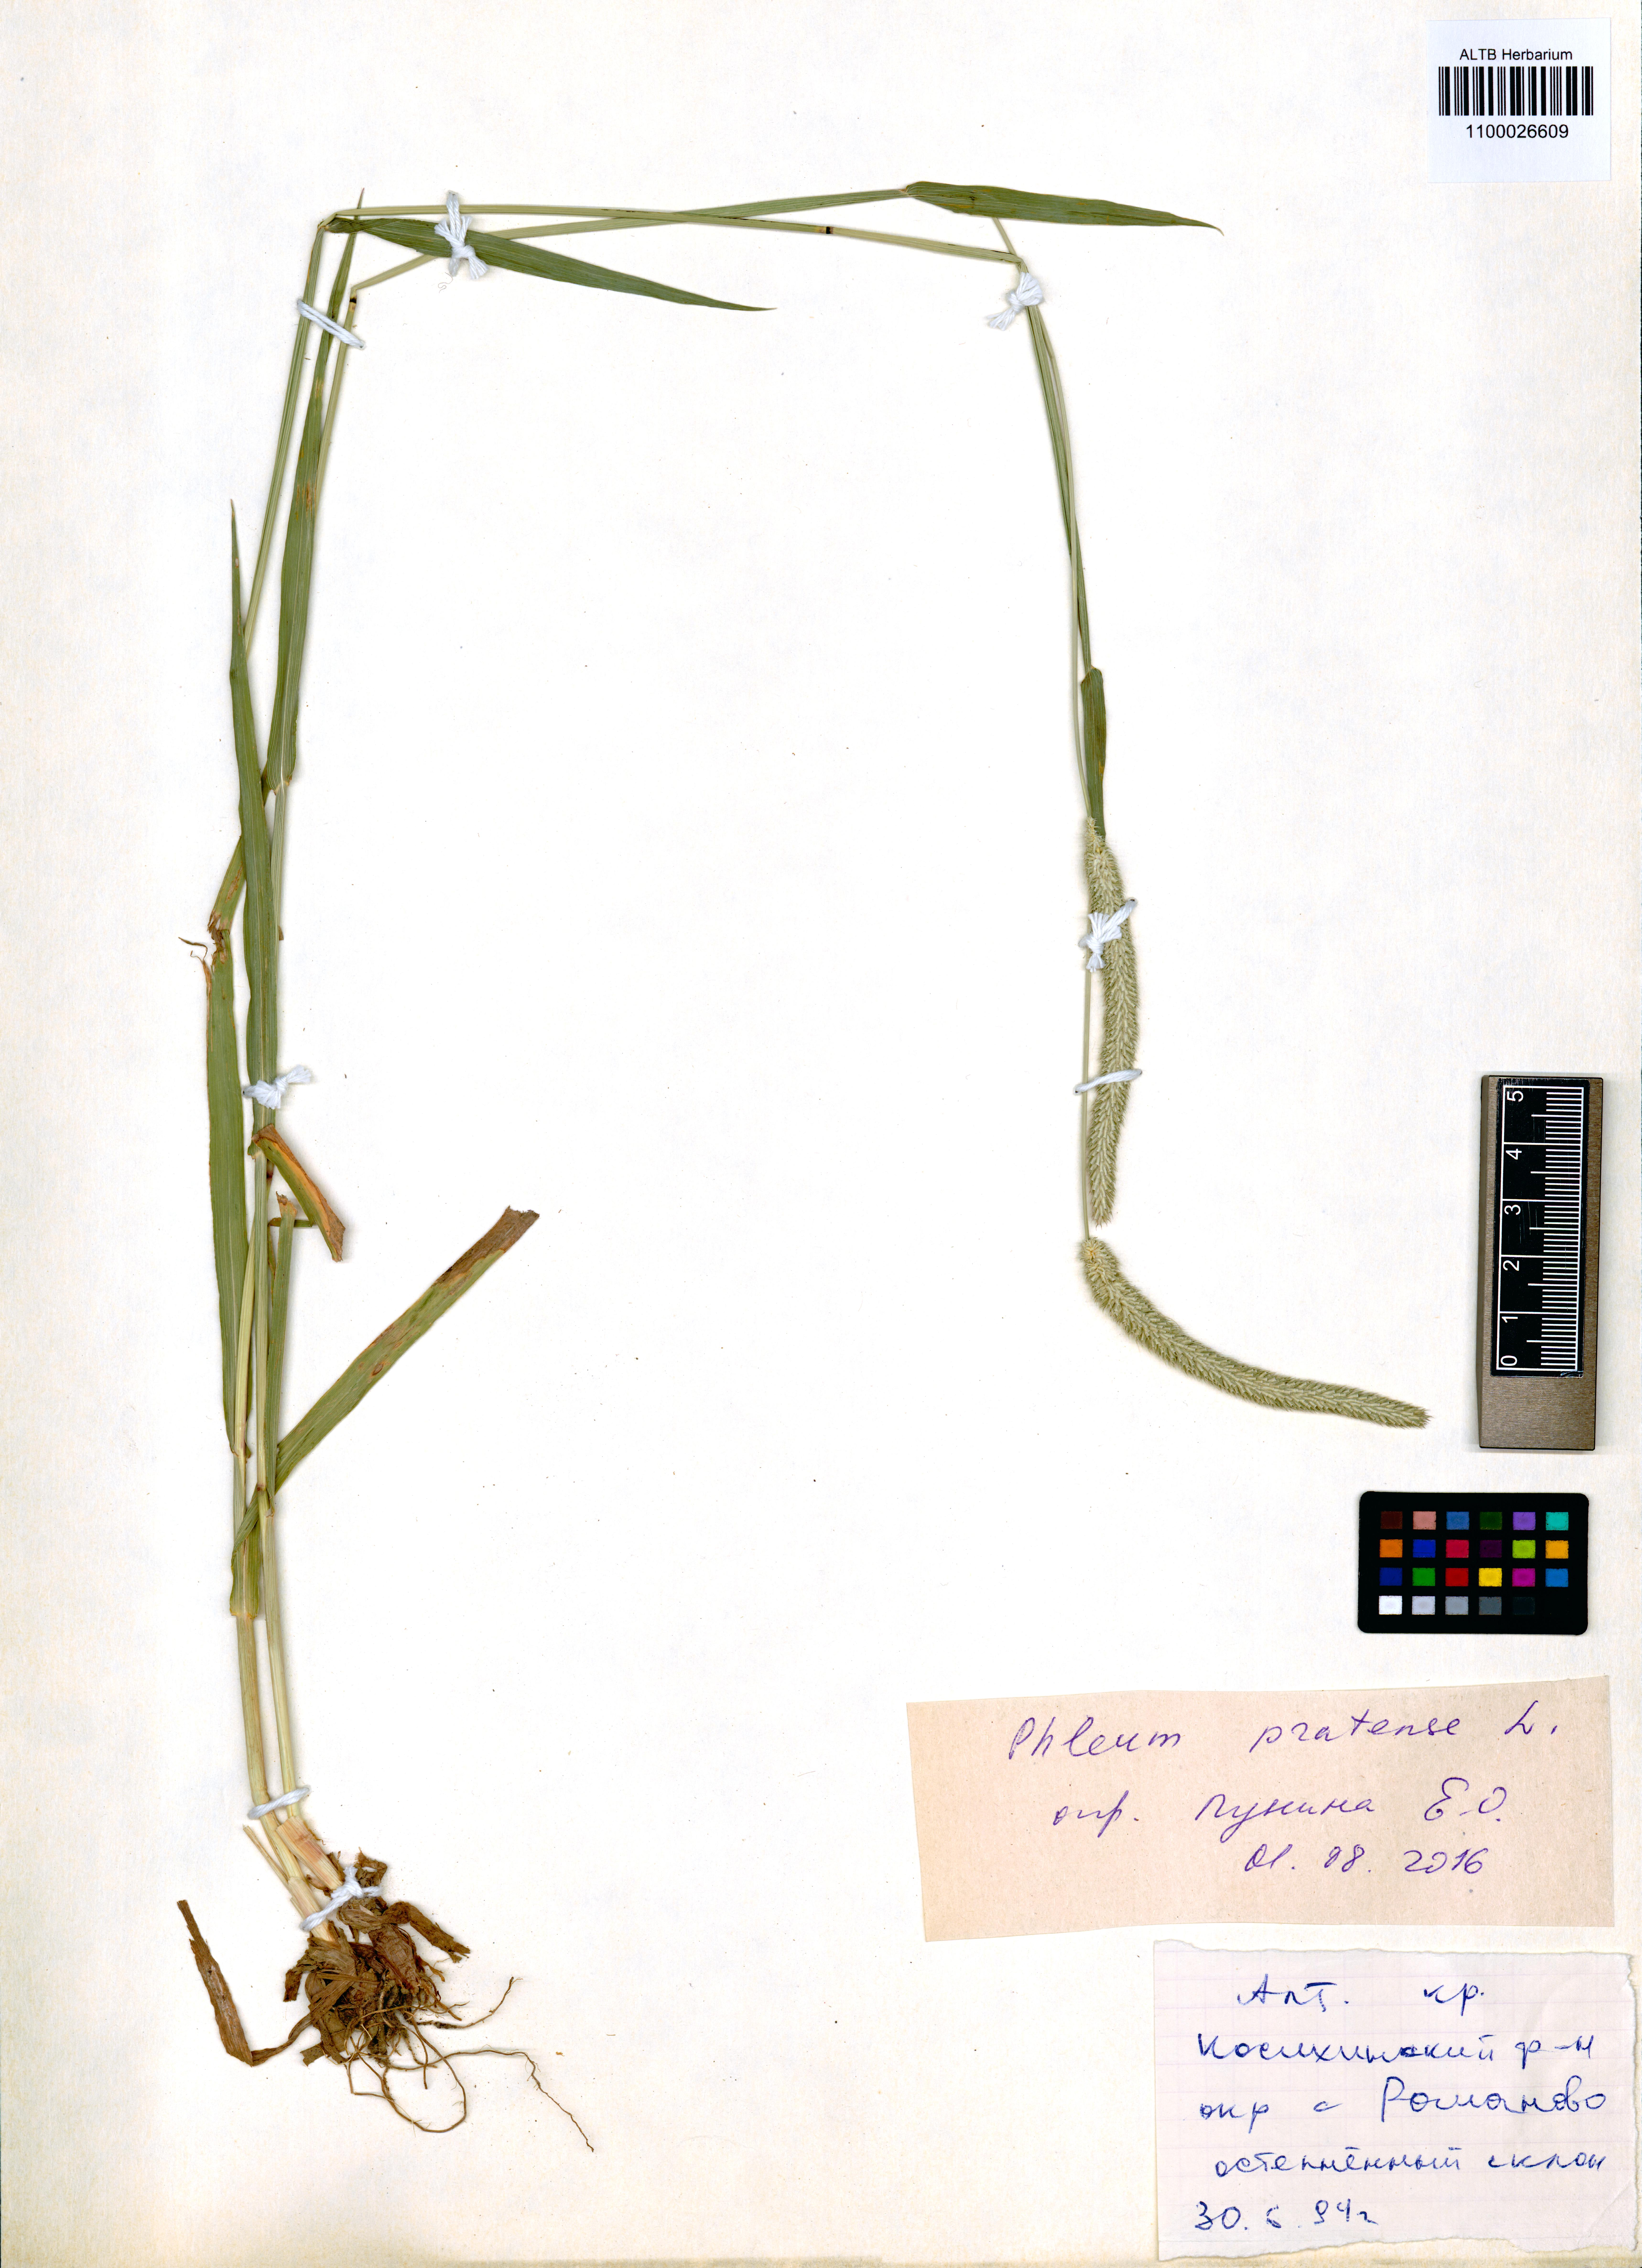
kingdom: Plantae
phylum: Tracheophyta
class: Liliopsida
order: Poales
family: Poaceae
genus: Phleum
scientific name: Phleum pratense
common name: Timothy grass
